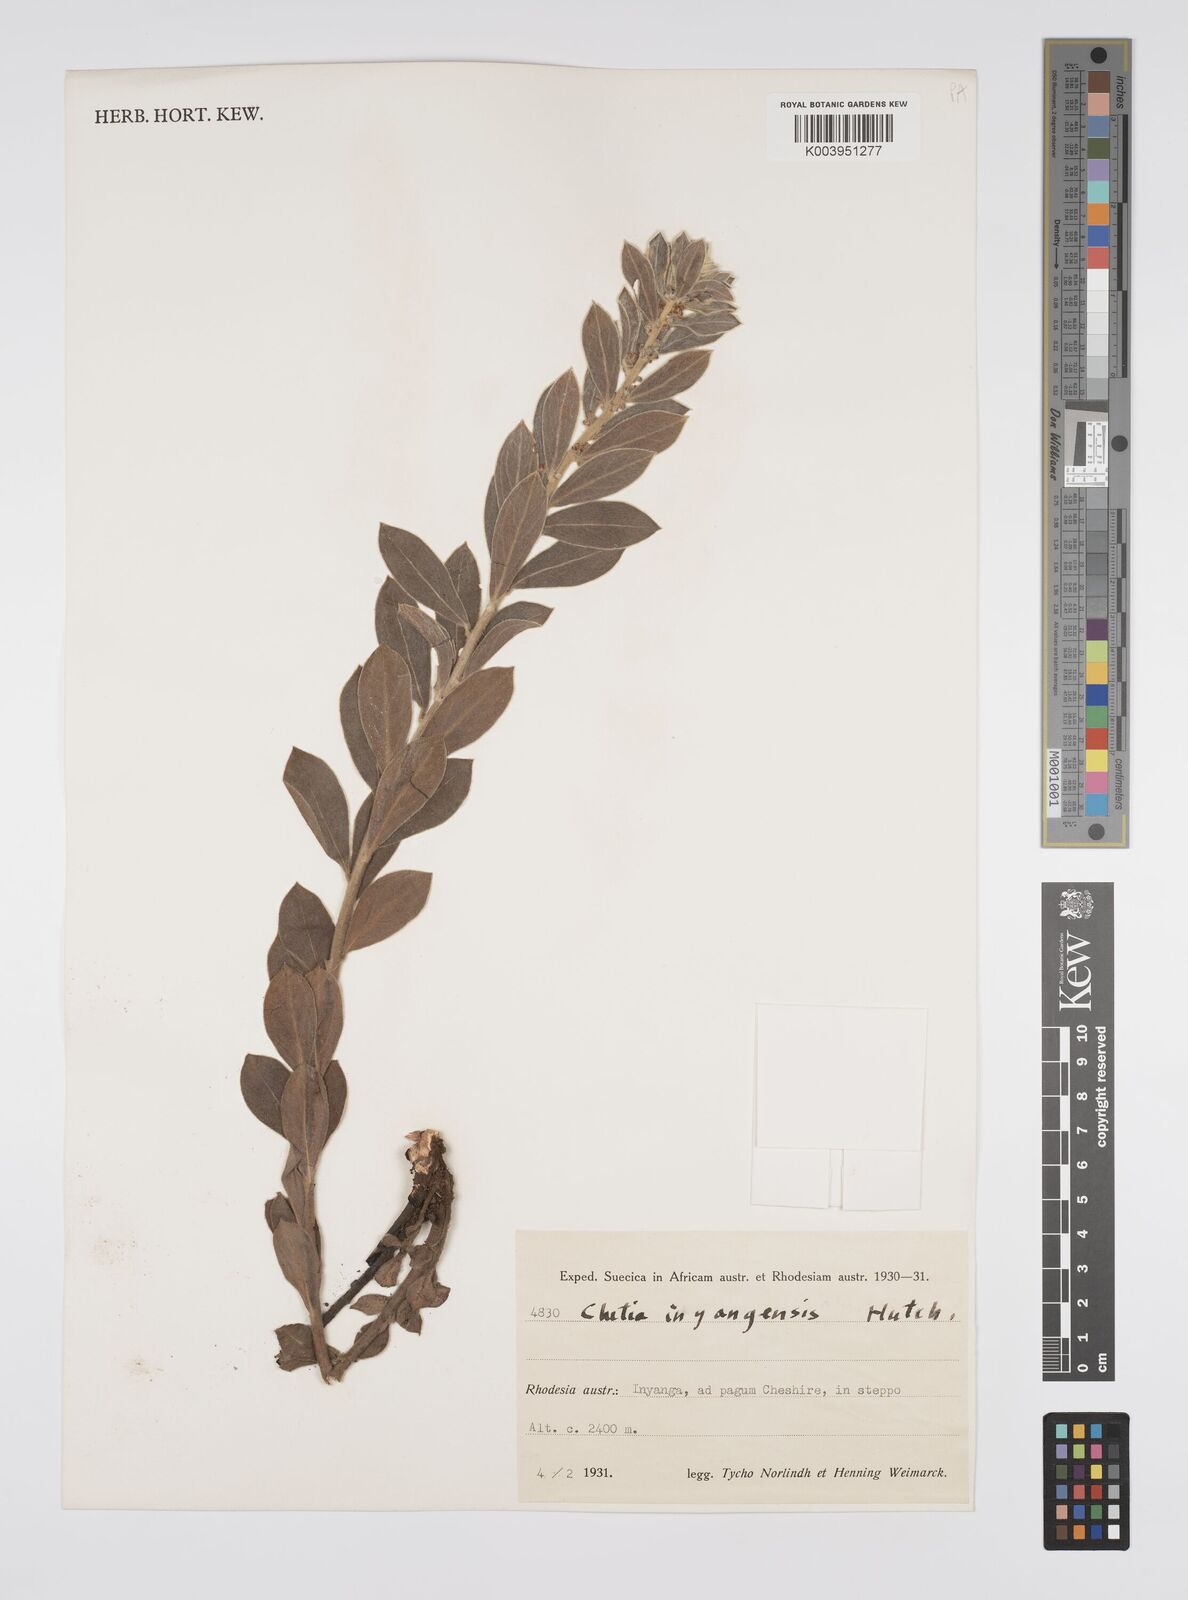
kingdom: Plantae
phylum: Tracheophyta
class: Magnoliopsida
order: Malpighiales
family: Peraceae
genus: Clutia
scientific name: Clutia
